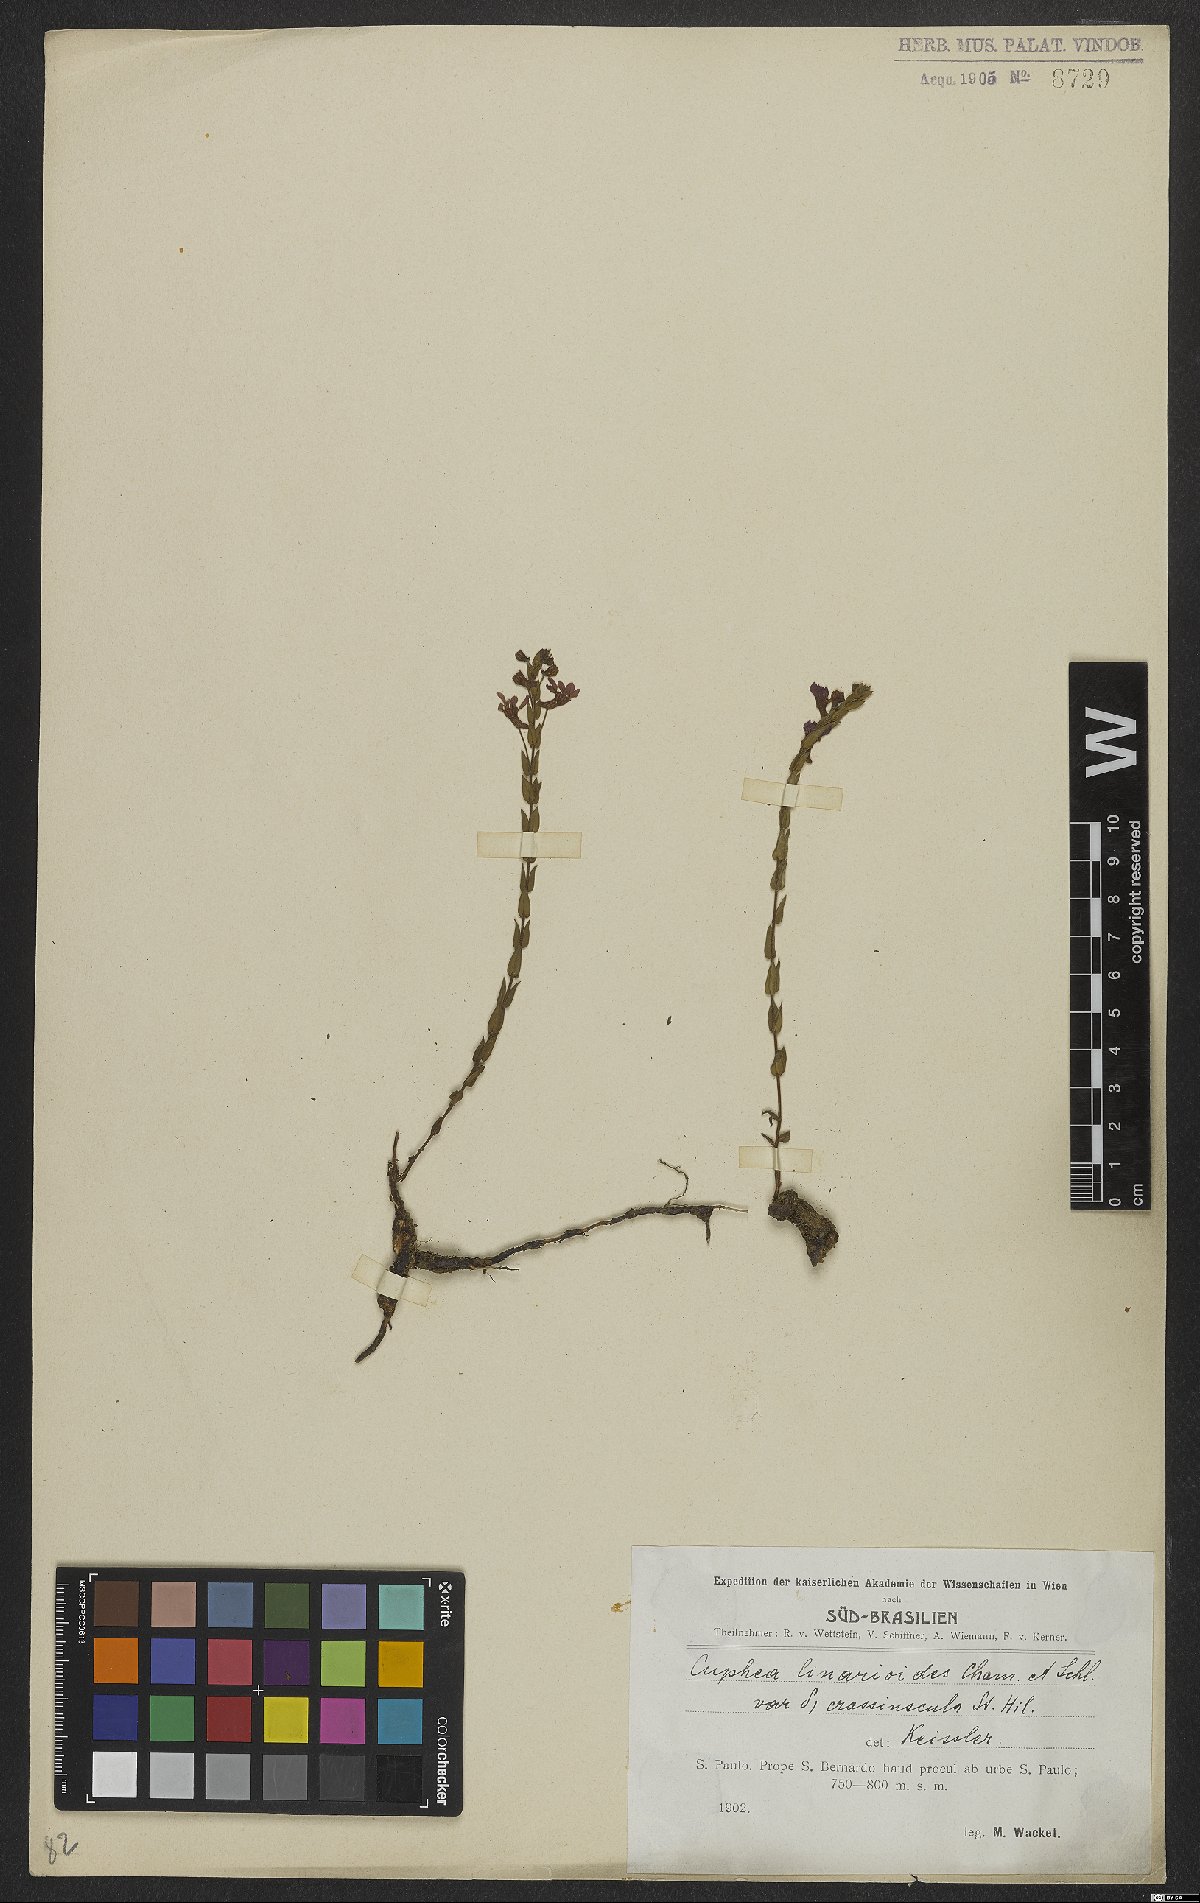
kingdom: Plantae
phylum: Tracheophyta
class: Magnoliopsida
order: Myrtales
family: Lythraceae
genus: Cuphea
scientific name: Cuphea linarioides
